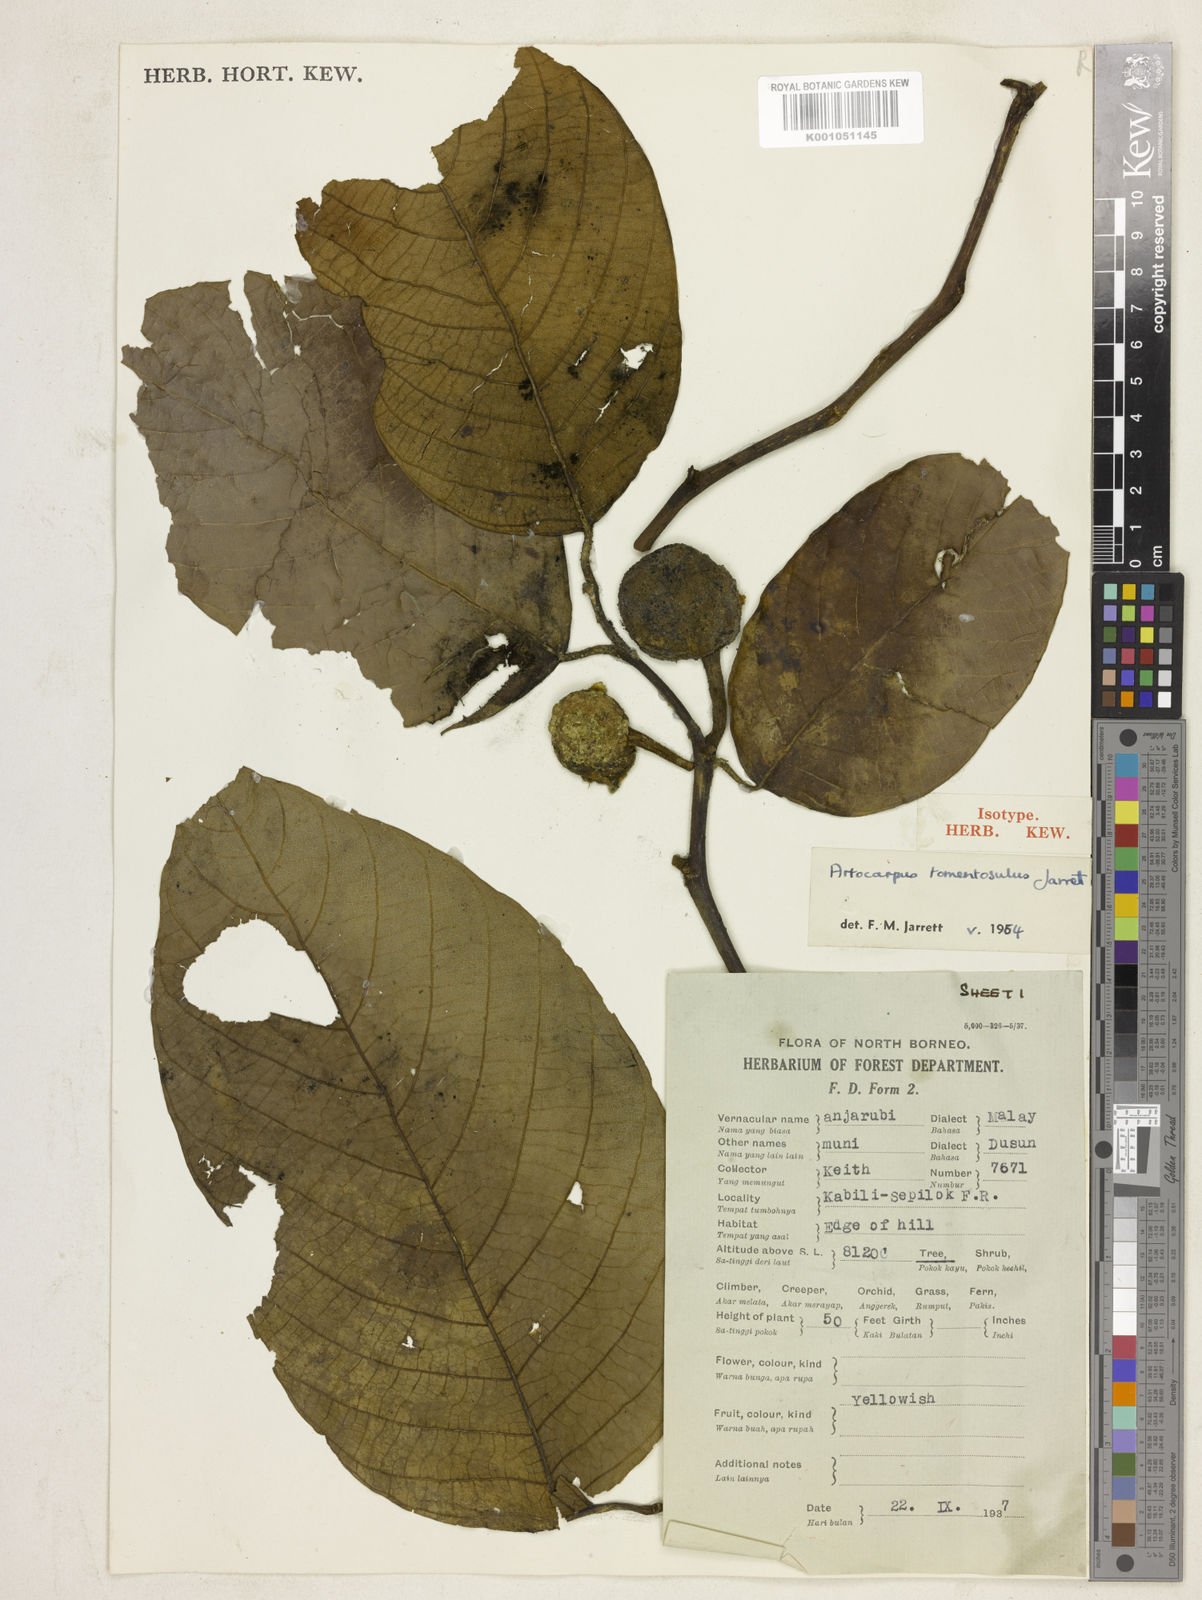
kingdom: Plantae
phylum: Tracheophyta
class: Magnoliopsida
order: Rosales
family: Moraceae
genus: Artocarpus
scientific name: Artocarpus tomentosulus
